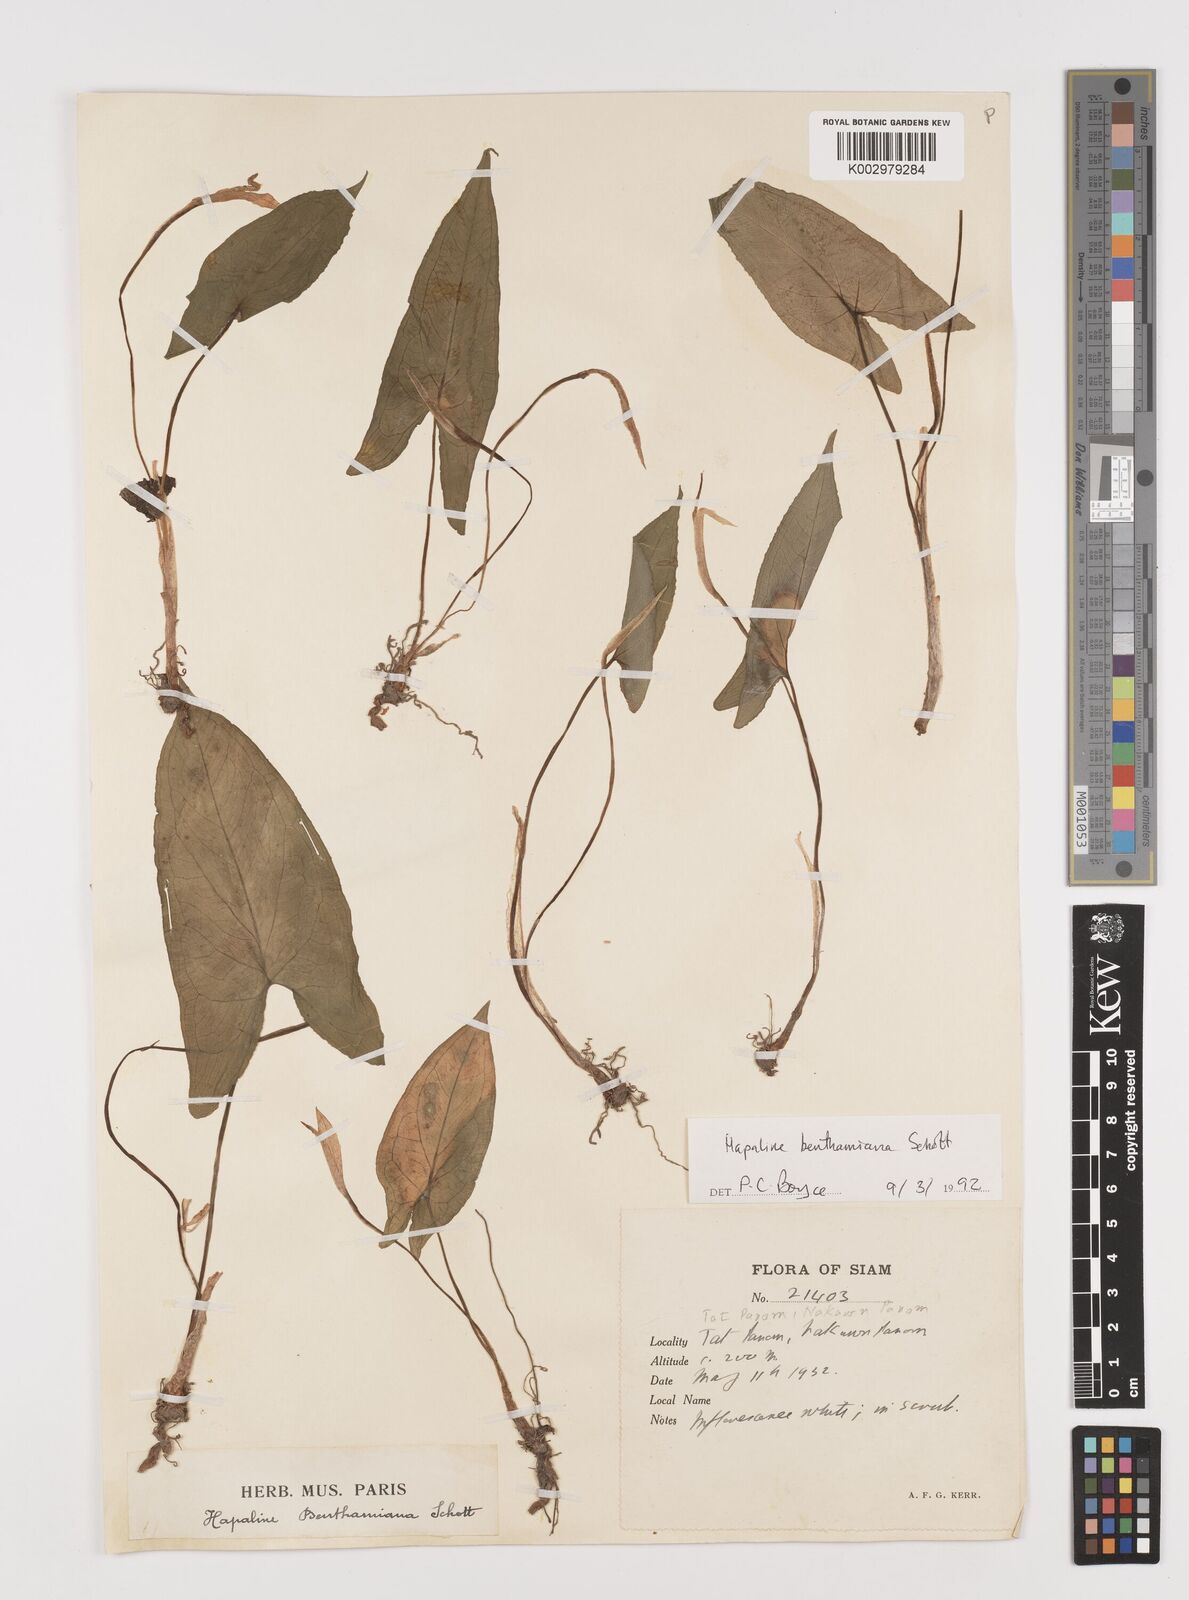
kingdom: Plantae
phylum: Tracheophyta
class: Liliopsida
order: Alismatales
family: Araceae
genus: Hapaline
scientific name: Hapaline benthamiana
